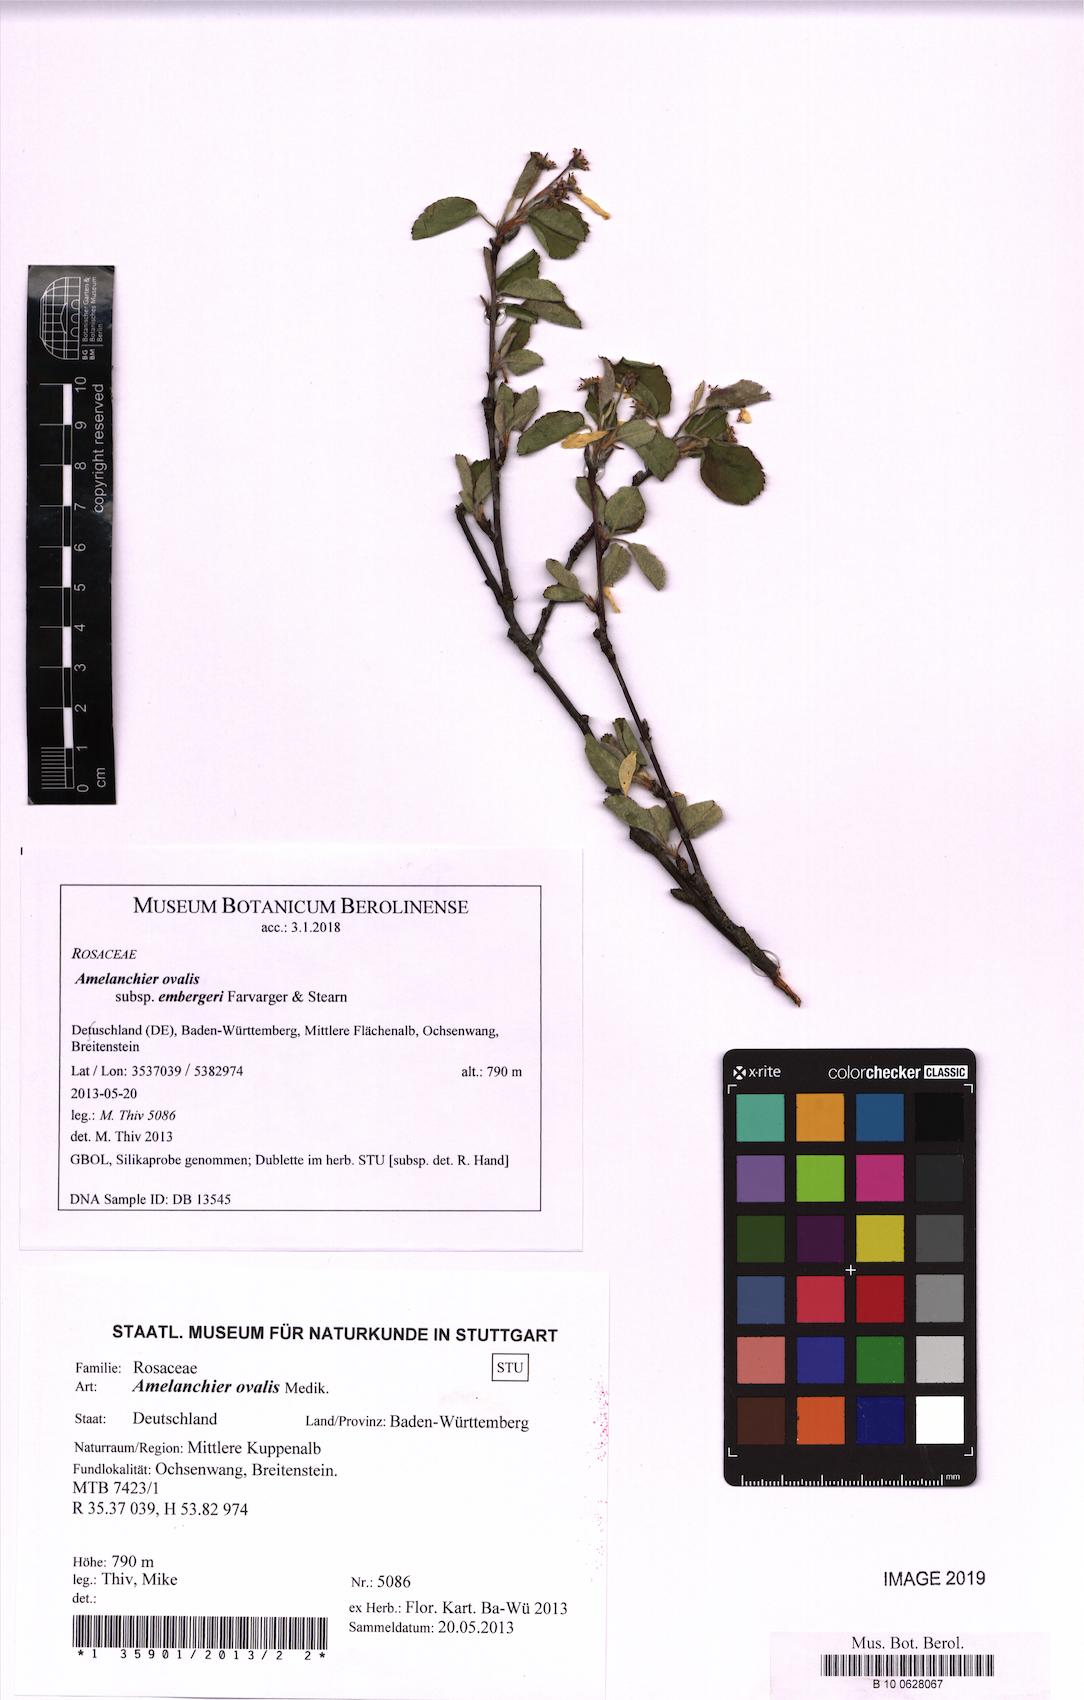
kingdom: Plantae
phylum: Tracheophyta
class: Magnoliopsida
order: Rosales
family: Rosaceae
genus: Amelanchier
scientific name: Amelanchier embergeri
